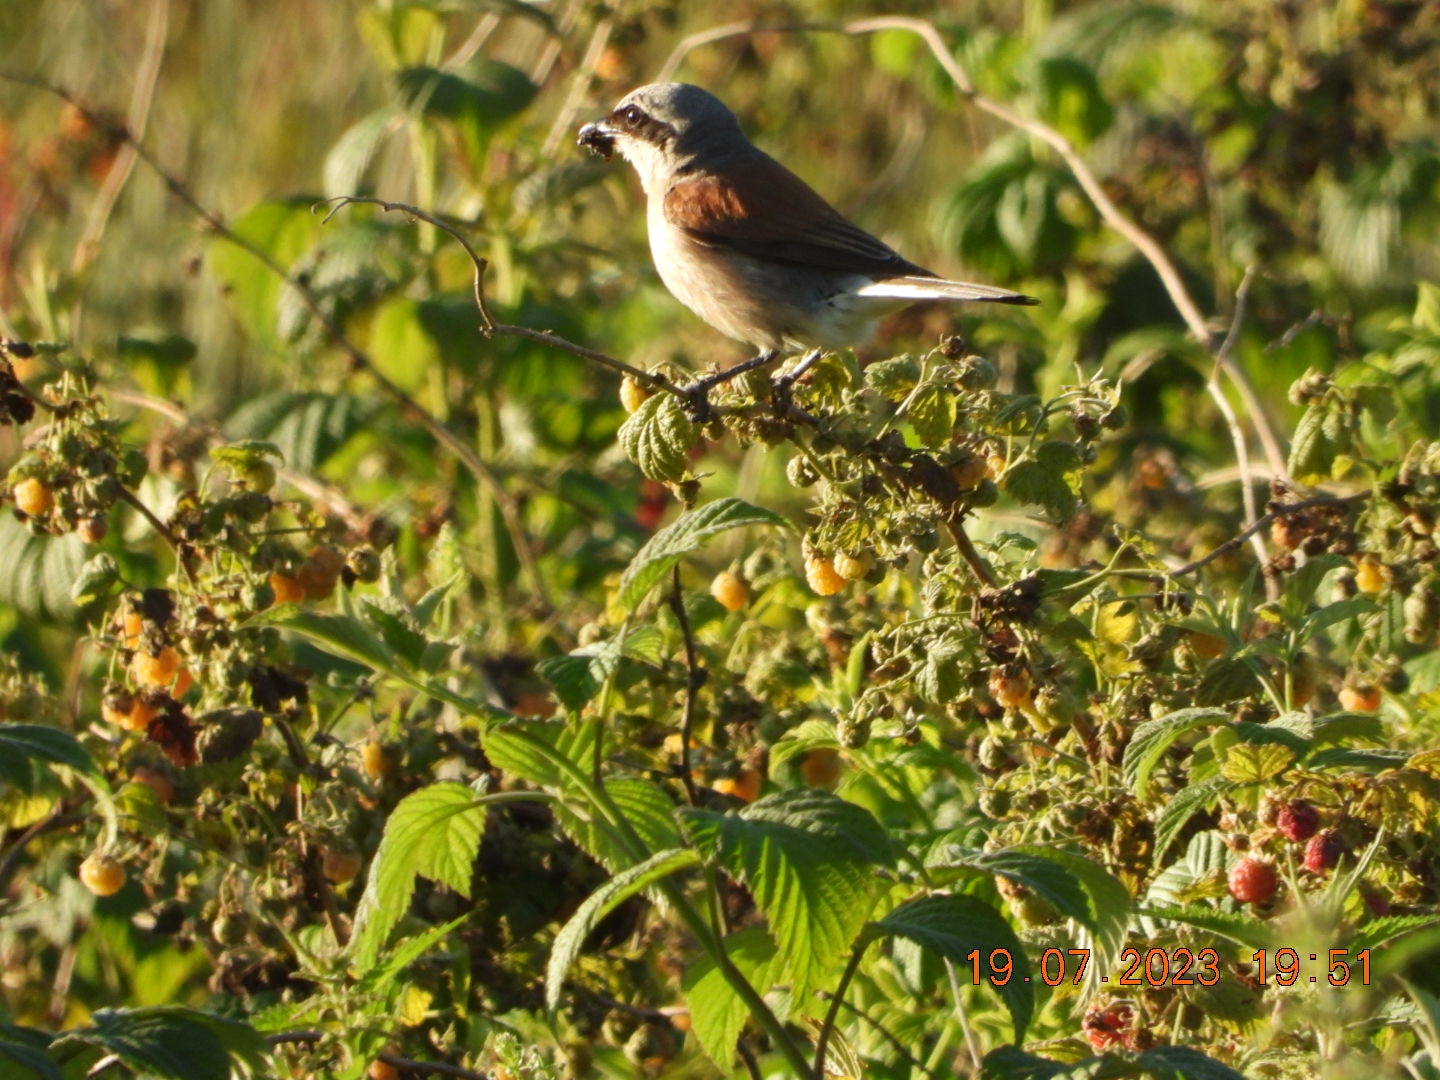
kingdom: Animalia
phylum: Chordata
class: Aves
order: Passeriformes
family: Laniidae
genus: Lanius
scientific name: Lanius collurio
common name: Rødrygget tornskade
